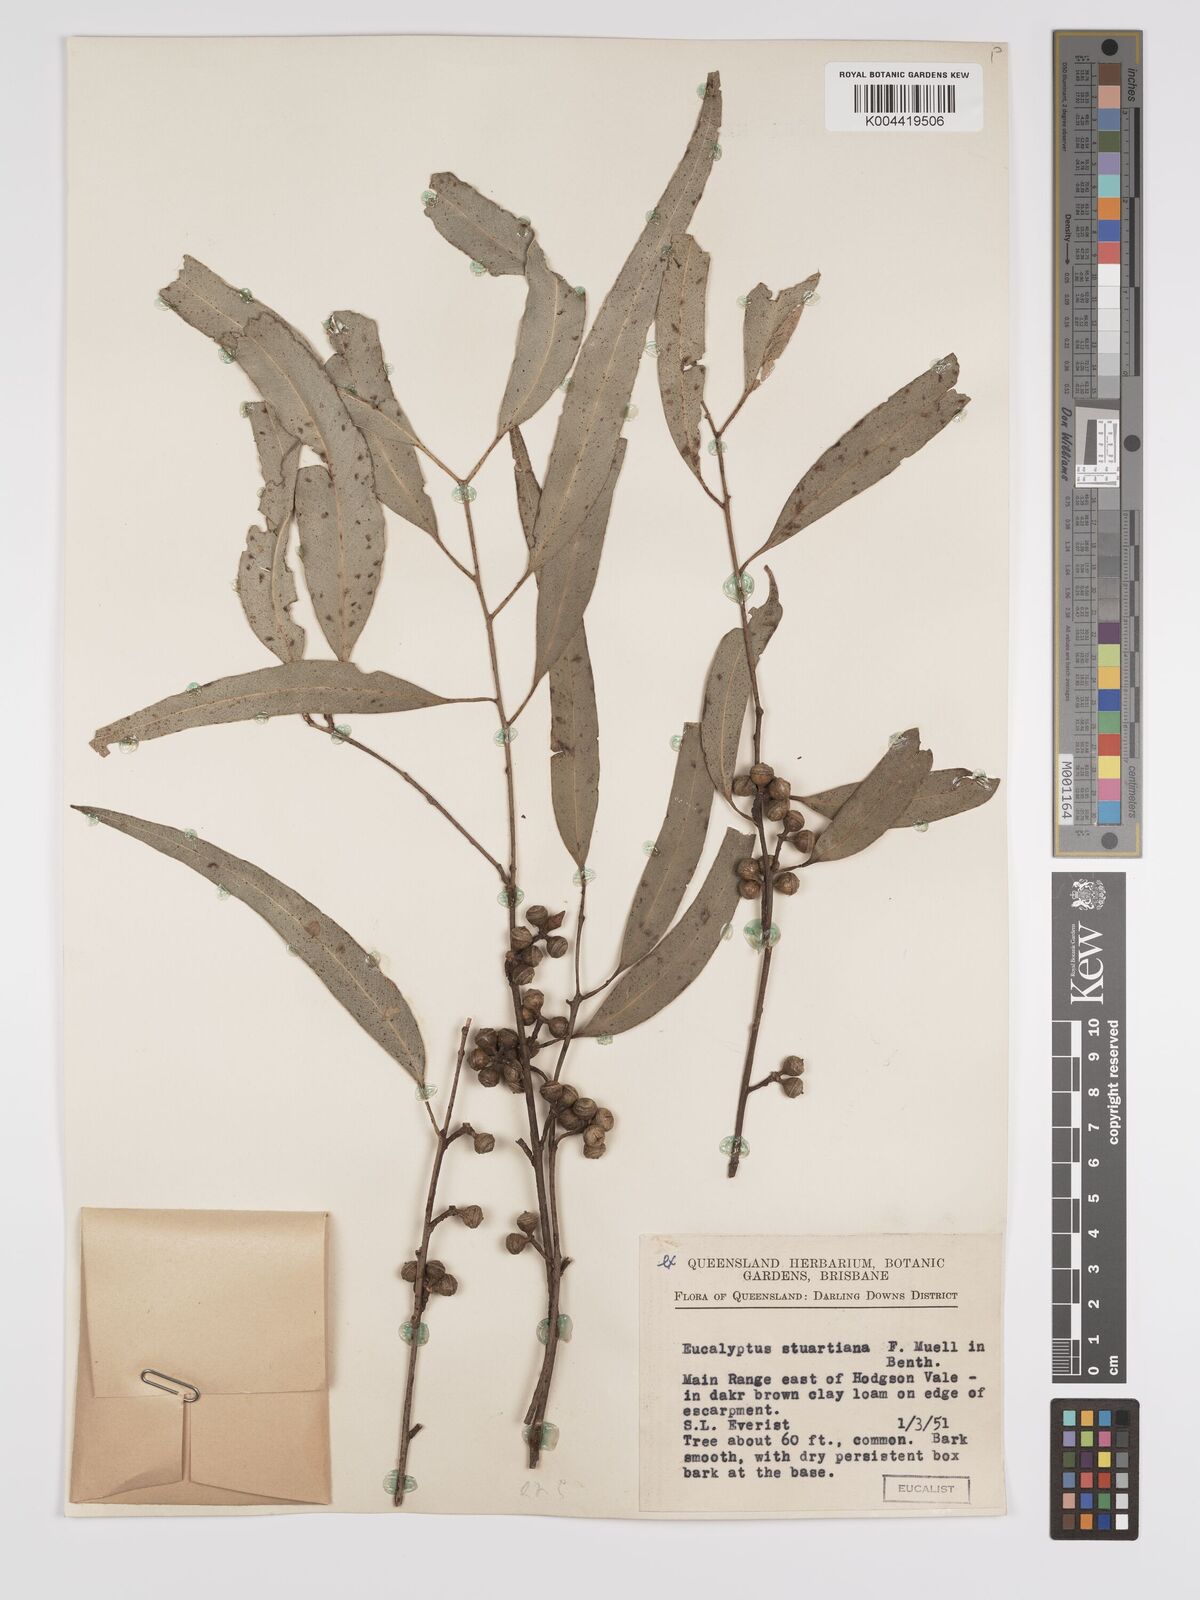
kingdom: Plantae
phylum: Tracheophyta
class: Magnoliopsida
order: Myrtales
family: Myrtaceae
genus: Eucalyptus
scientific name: Eucalyptus ovata
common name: Black-gum
